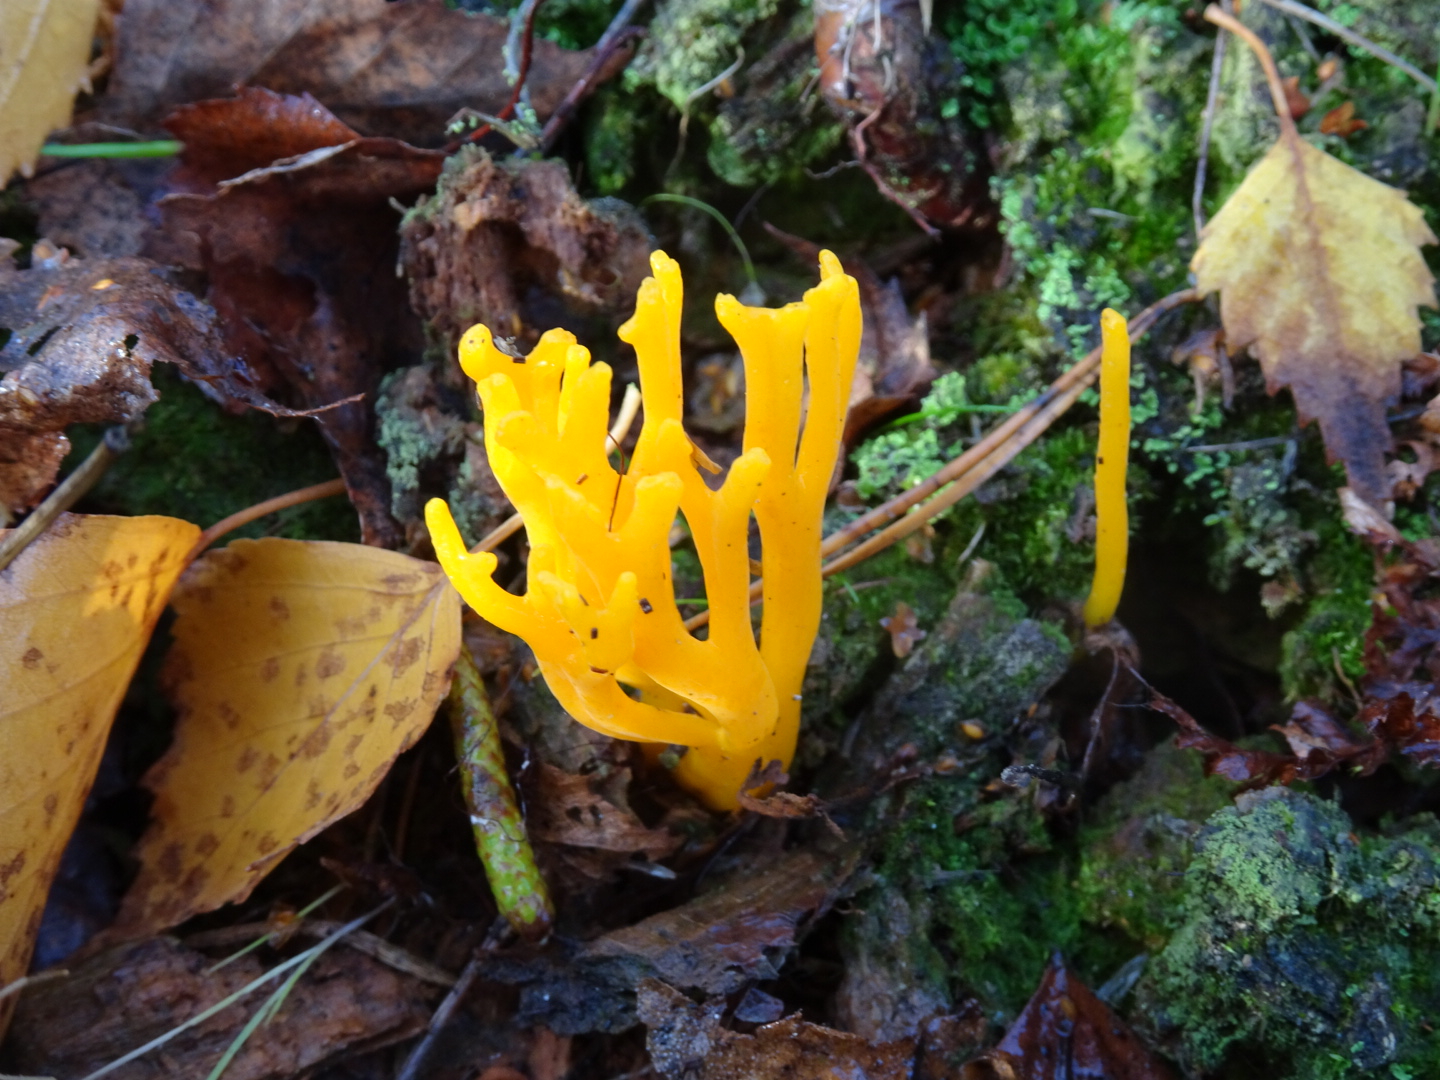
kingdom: Fungi
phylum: Basidiomycota
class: Dacrymycetes
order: Dacrymycetales
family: Dacrymycetaceae
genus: Calocera
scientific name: Calocera viscosa
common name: almindelig guldgaffel
